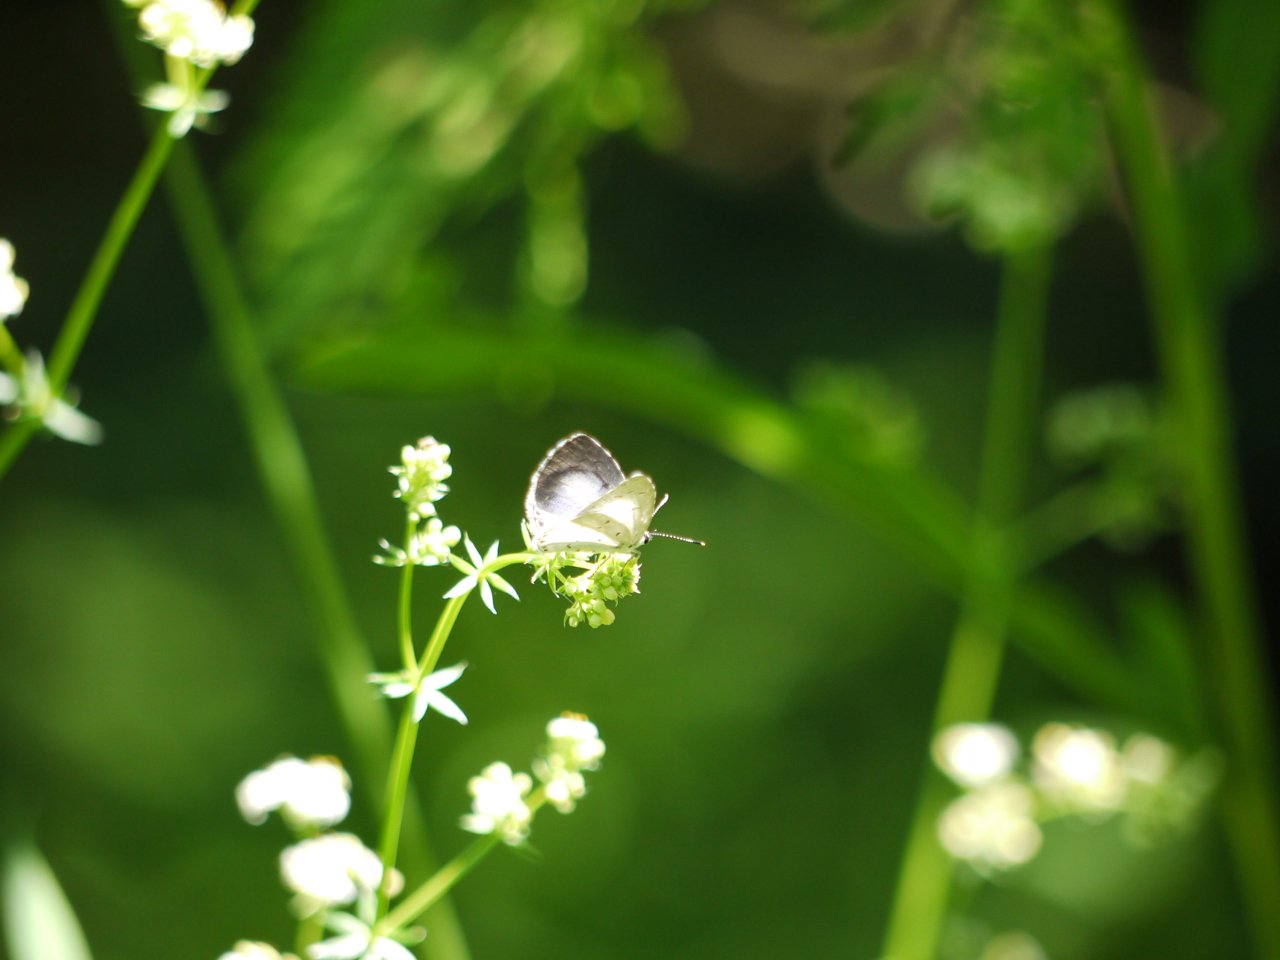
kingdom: Animalia
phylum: Arthropoda
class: Insecta
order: Lepidoptera
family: Lycaenidae
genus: Celastrina
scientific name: Celastrina
